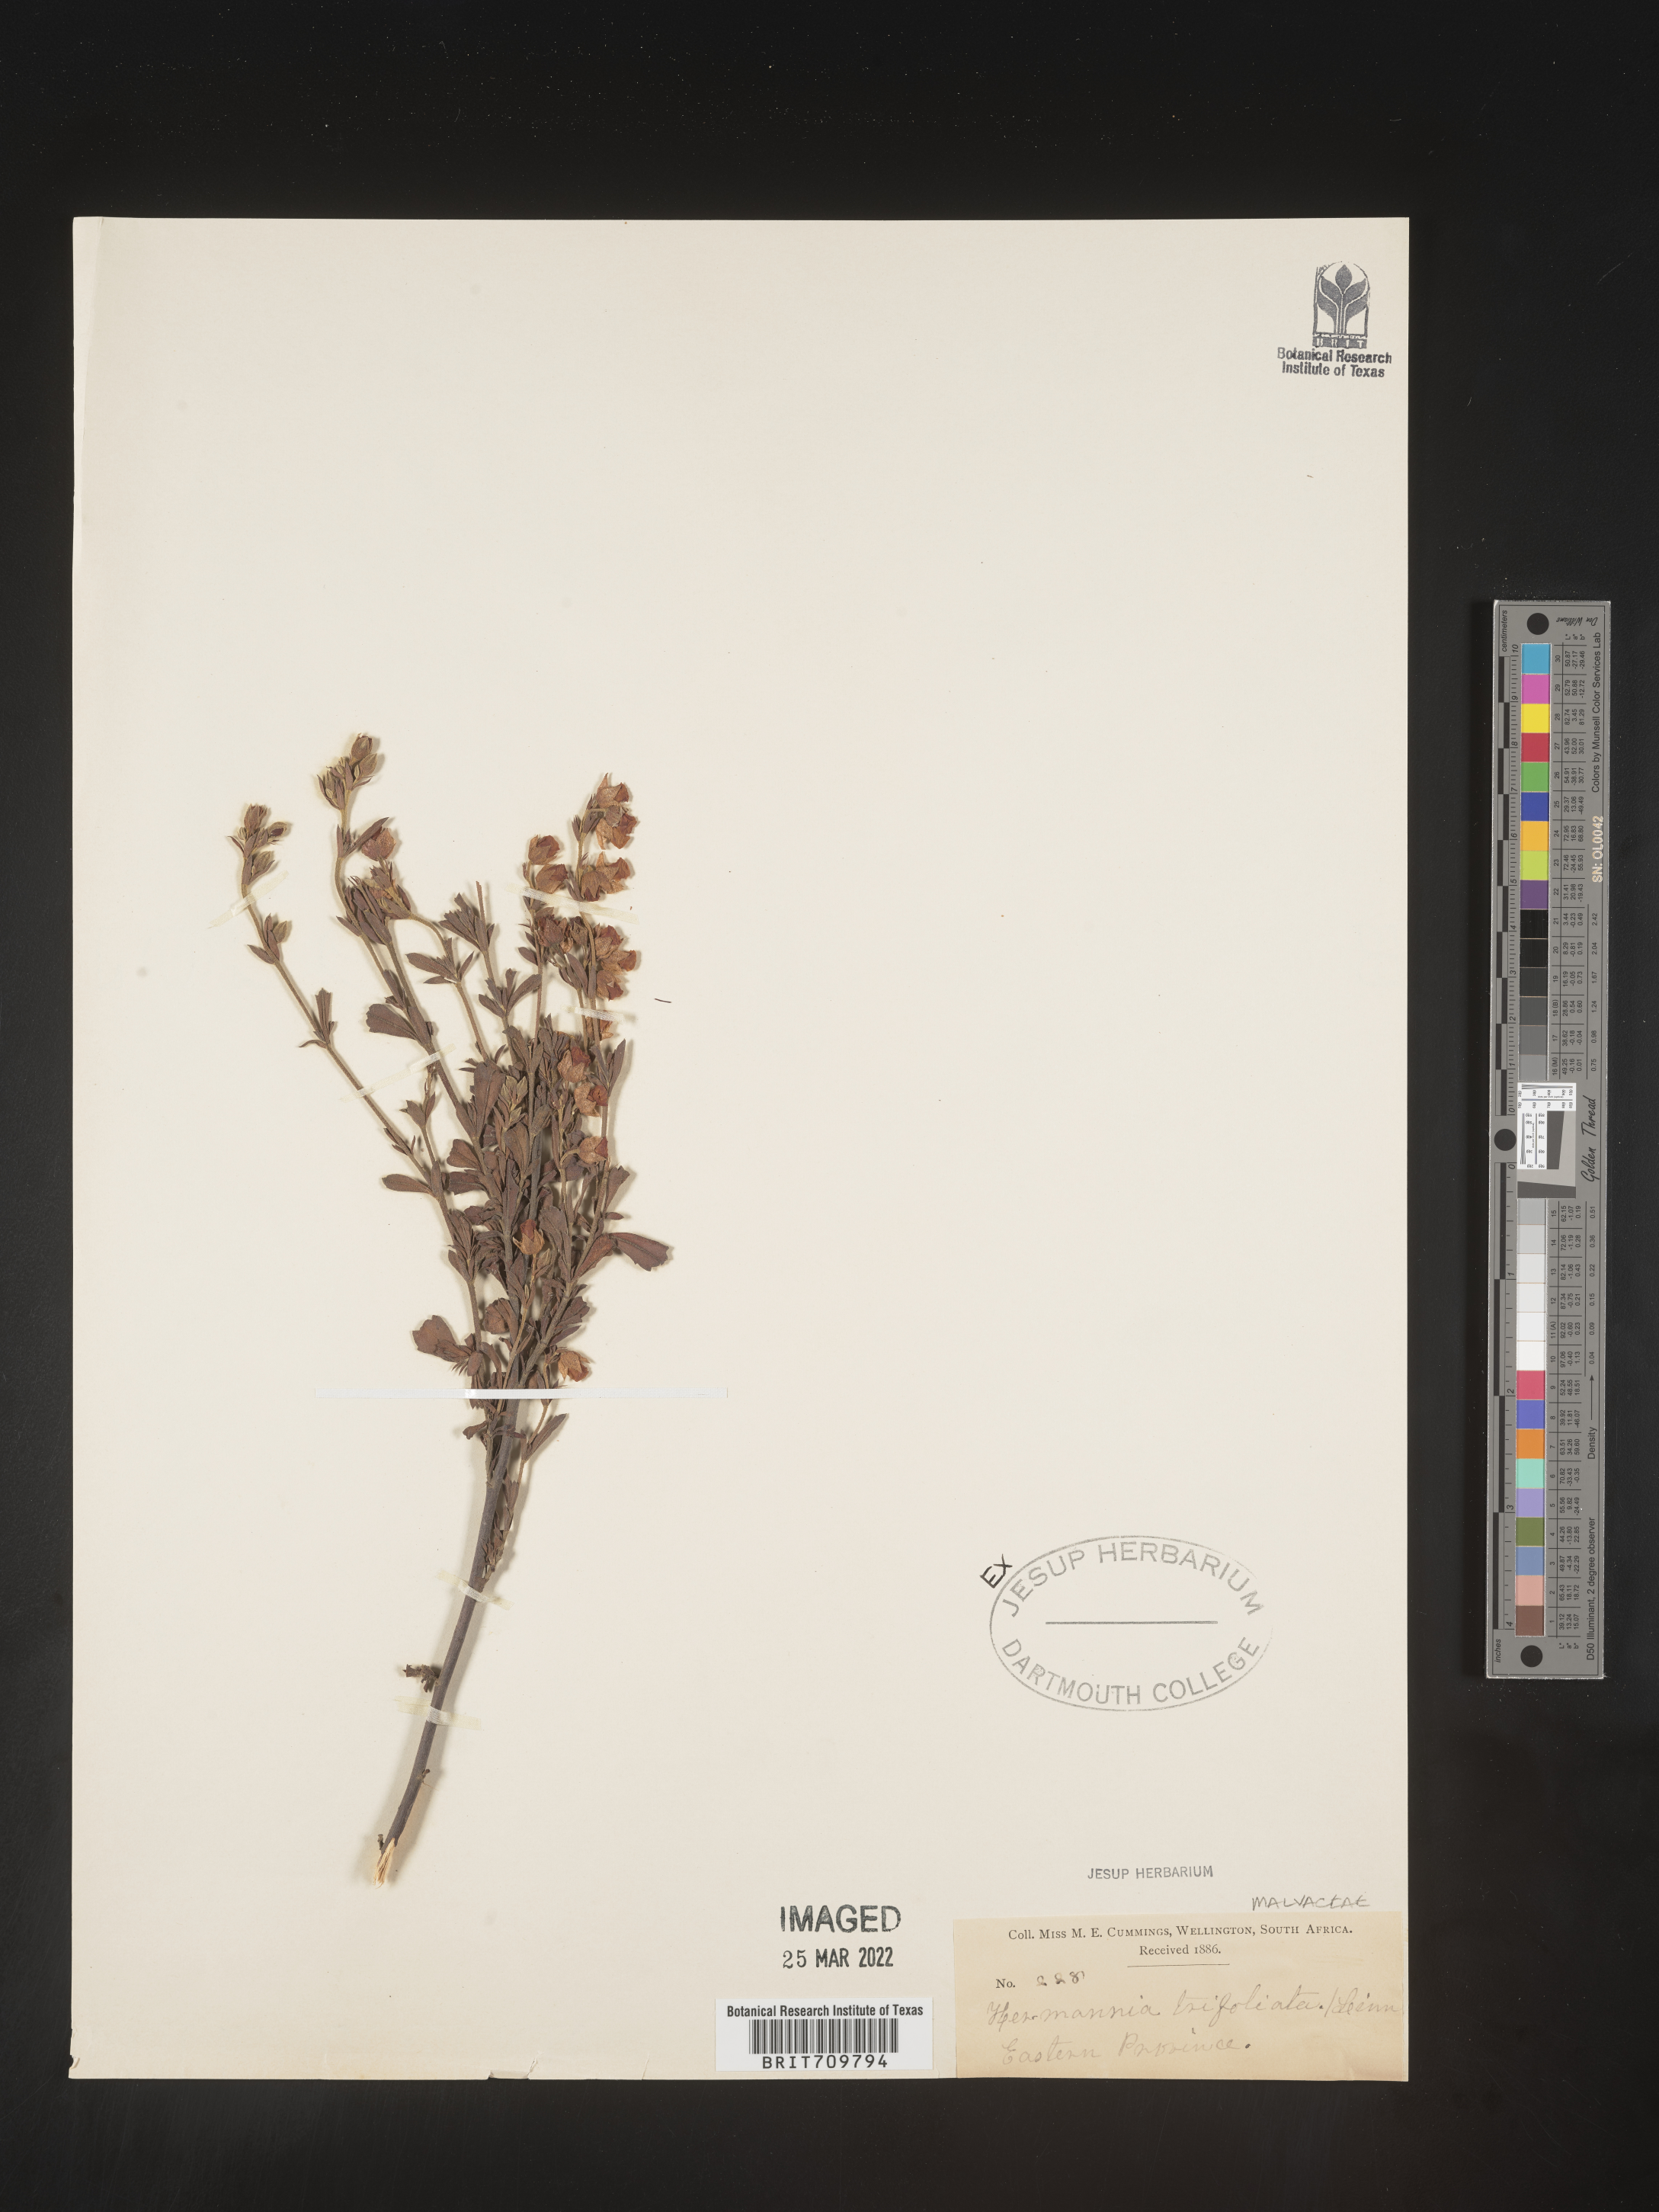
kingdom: Plantae
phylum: Tracheophyta
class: Magnoliopsida
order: Malvales
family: Malvaceae
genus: Hermannia
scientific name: Hermannia
